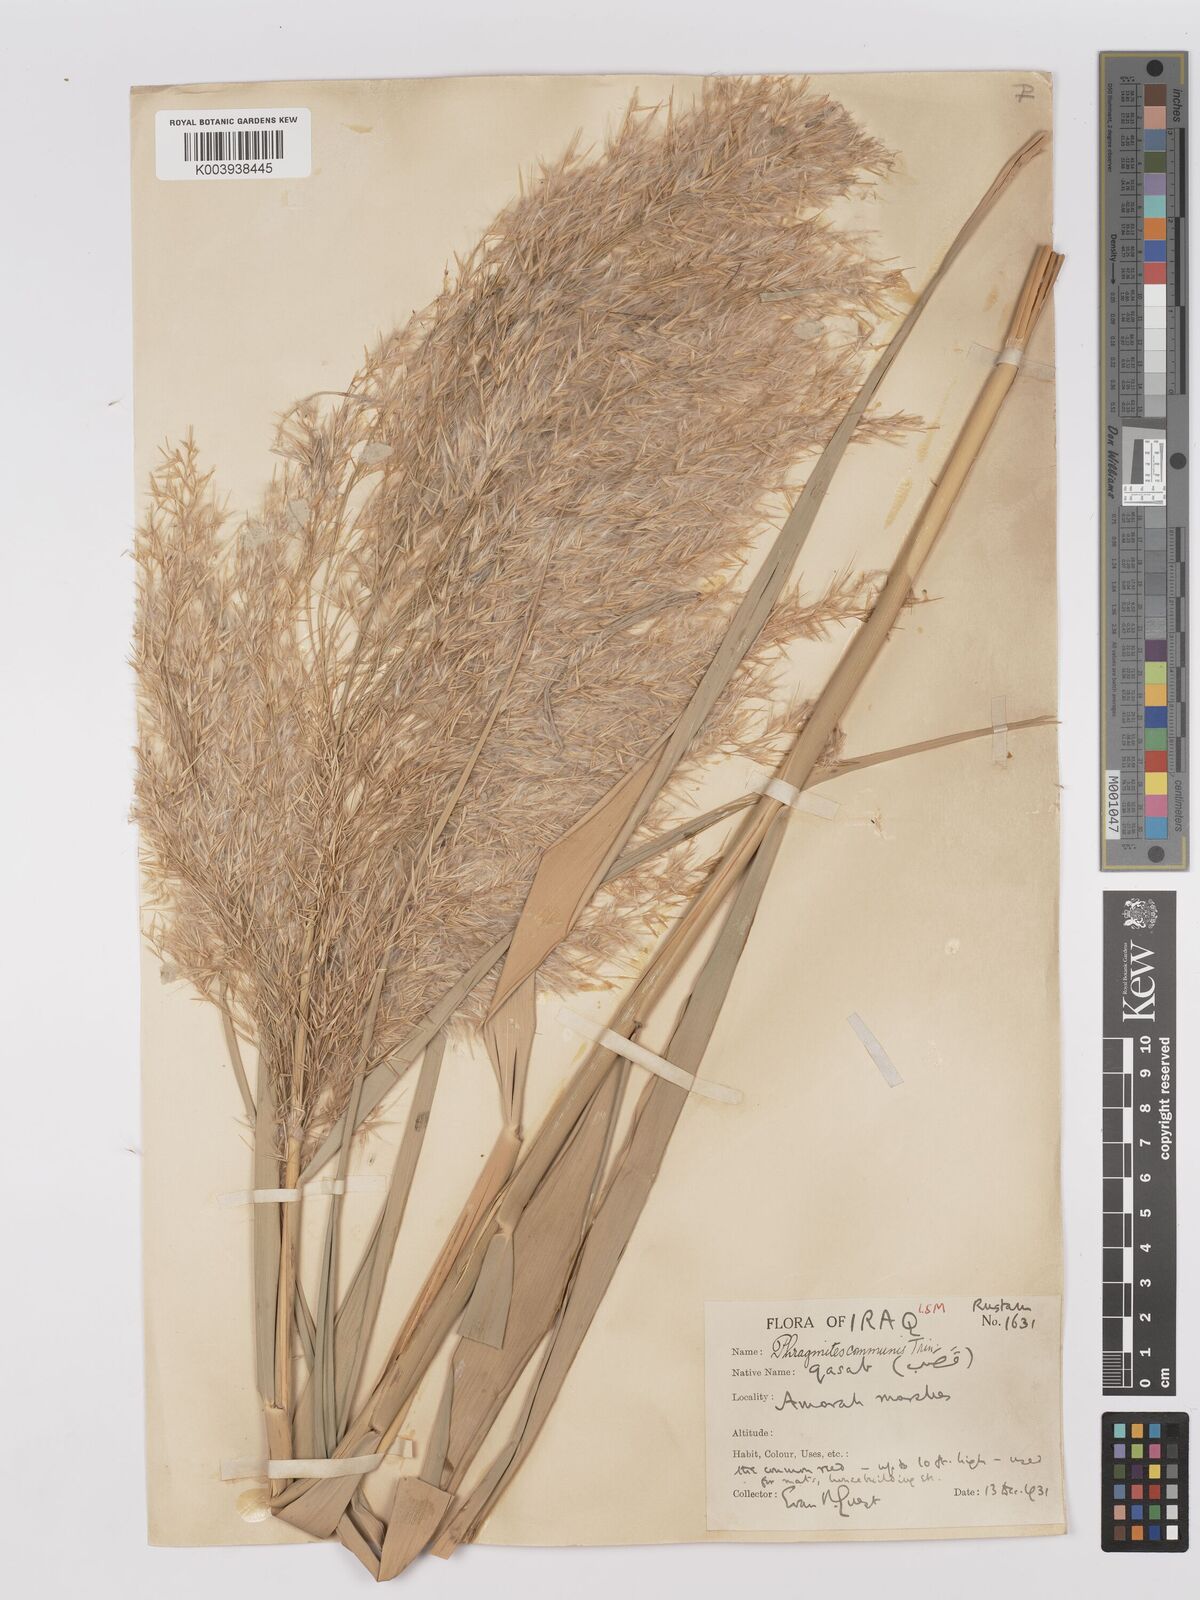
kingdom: Plantae
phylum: Tracheophyta
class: Liliopsida
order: Poales
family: Poaceae
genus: Phragmites
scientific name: Phragmites australis
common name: Common reed
